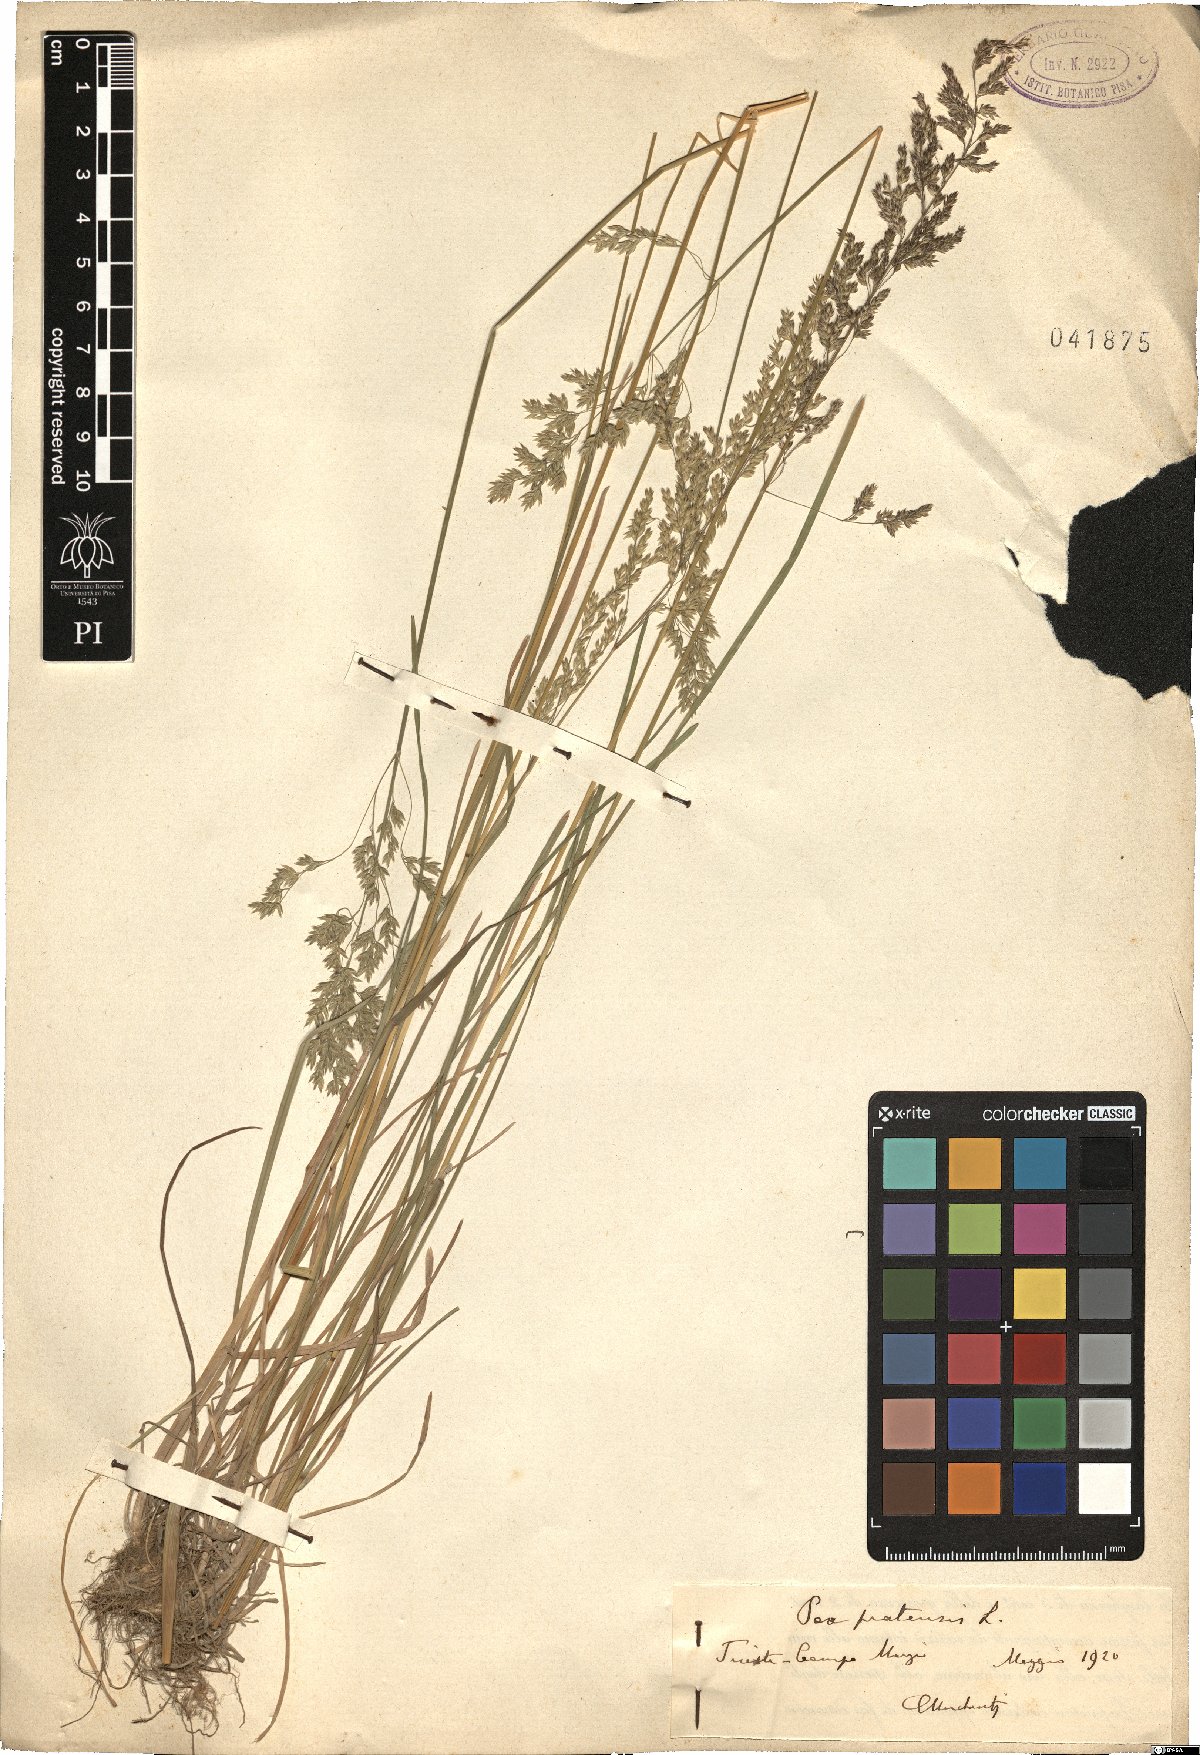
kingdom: Plantae
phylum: Tracheophyta
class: Liliopsida
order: Poales
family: Poaceae
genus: Poa
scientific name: Poa pratensis
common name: Kentucky bluegrass
